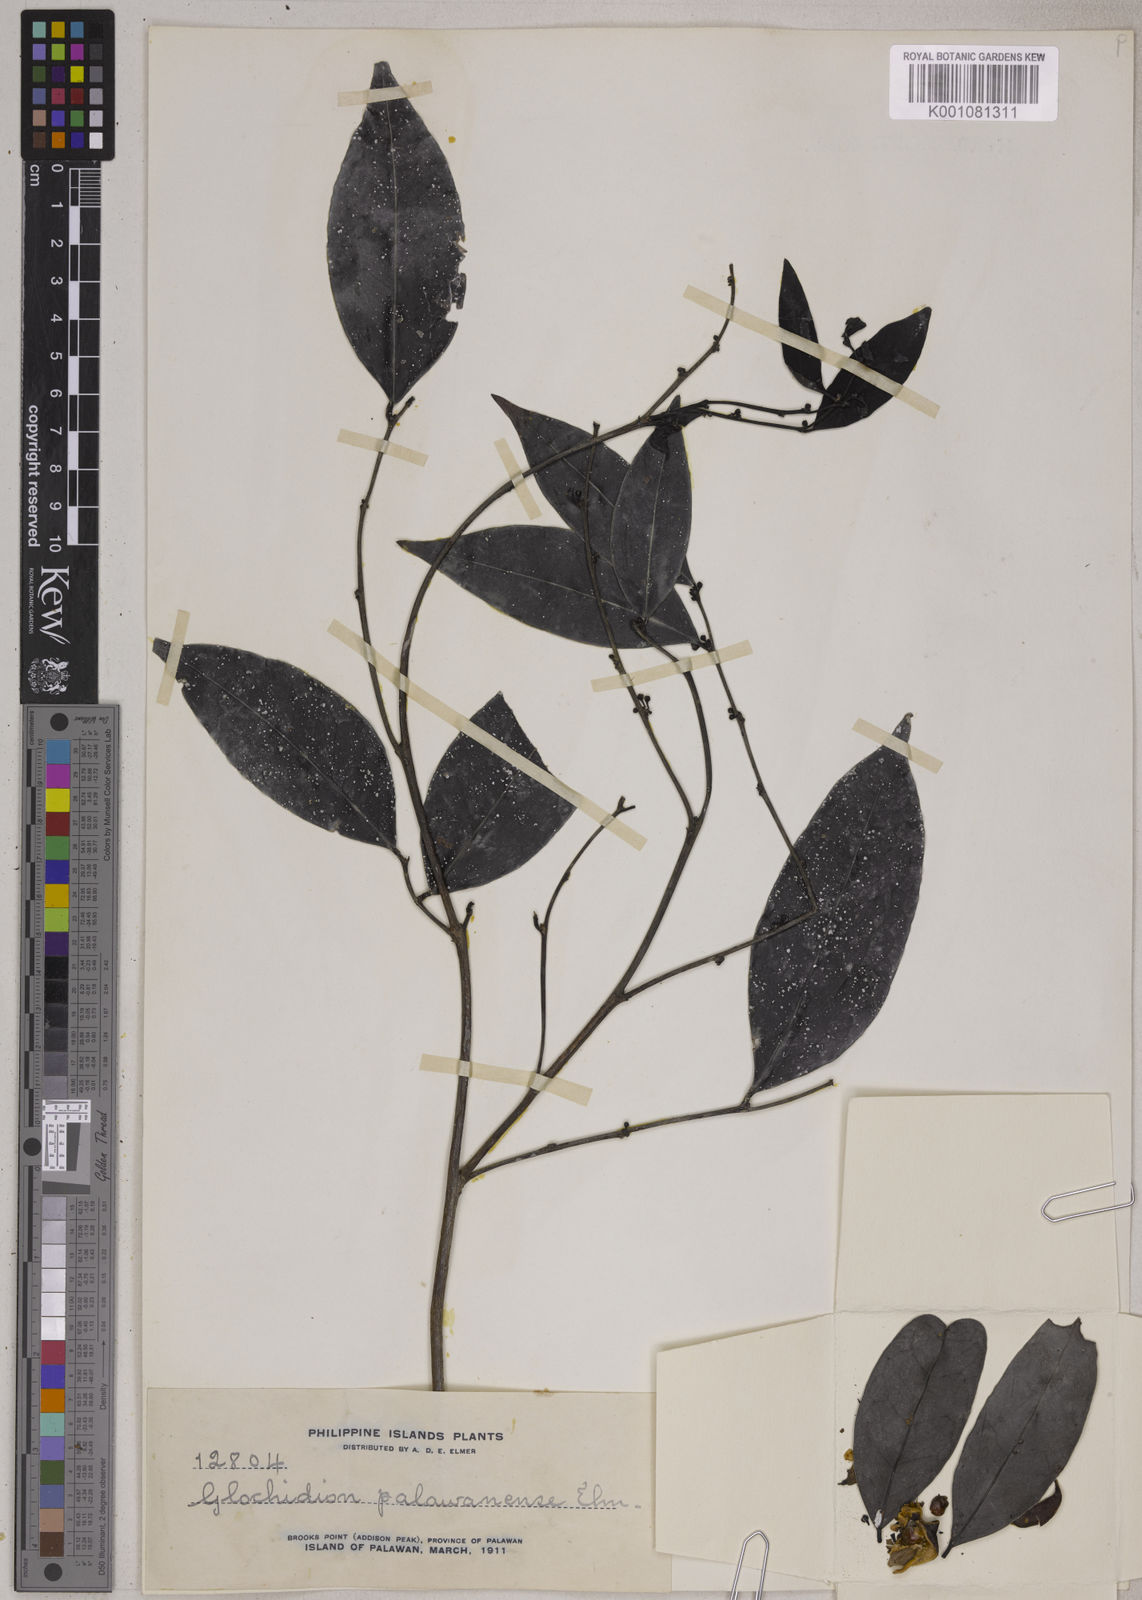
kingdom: Plantae
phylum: Tracheophyta
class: Magnoliopsida
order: Malpighiales
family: Phyllanthaceae
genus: Glochidion
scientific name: Glochidion palawanense
